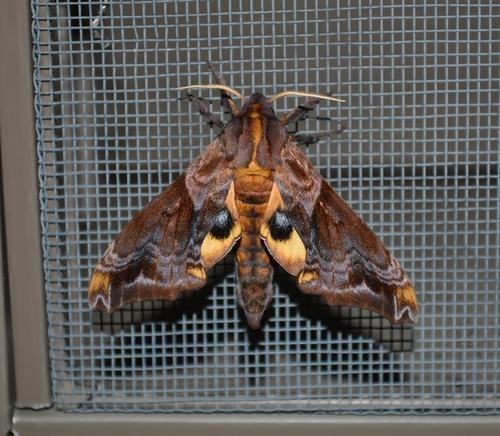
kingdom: Animalia
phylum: Arthropoda
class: Insecta
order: Lepidoptera
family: Sphingidae
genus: Paonias
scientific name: Paonias myops
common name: Small-eyed sphinx
